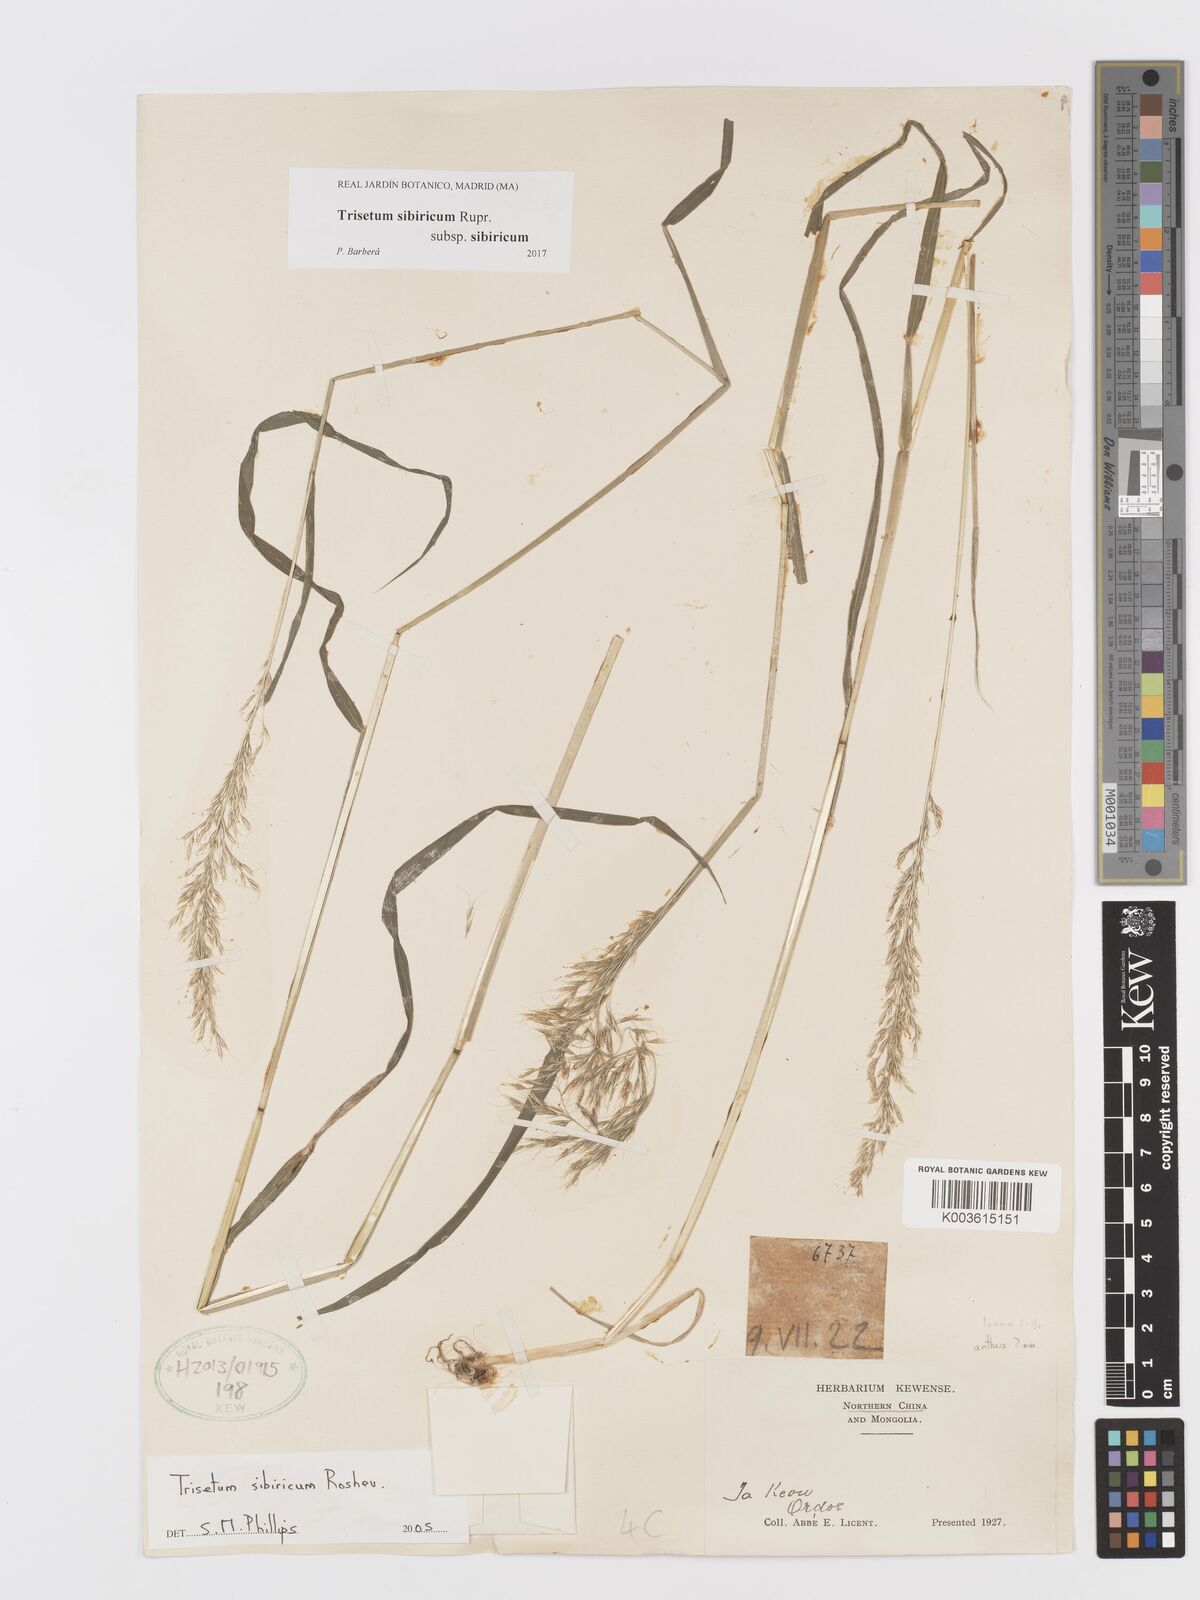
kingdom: Plantae
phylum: Tracheophyta
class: Liliopsida
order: Poales
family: Poaceae
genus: Sibirotrisetum
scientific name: Sibirotrisetum sibiricum
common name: Siberian false oat
